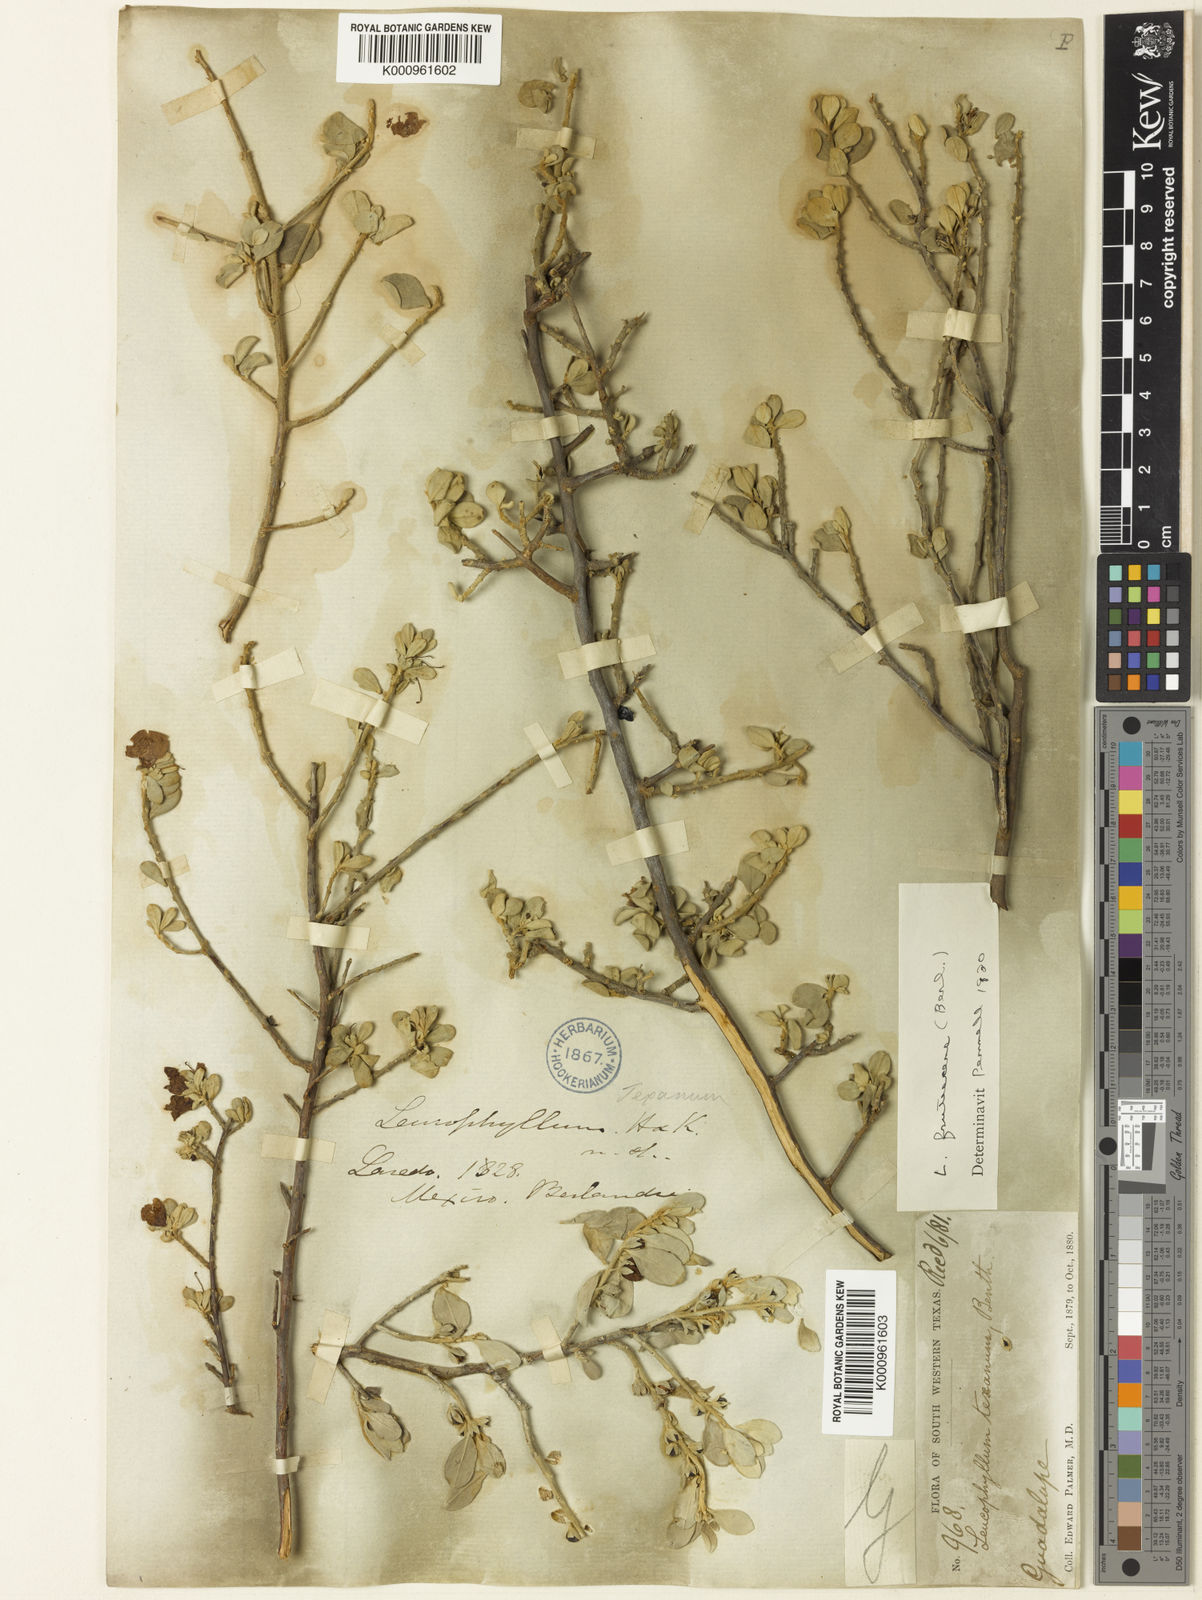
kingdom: Plantae
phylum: Tracheophyta
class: Magnoliopsida
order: Lamiales
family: Scrophulariaceae
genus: Leucophyllum
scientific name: Leucophyllum frutescens
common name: Texas silverleaf
